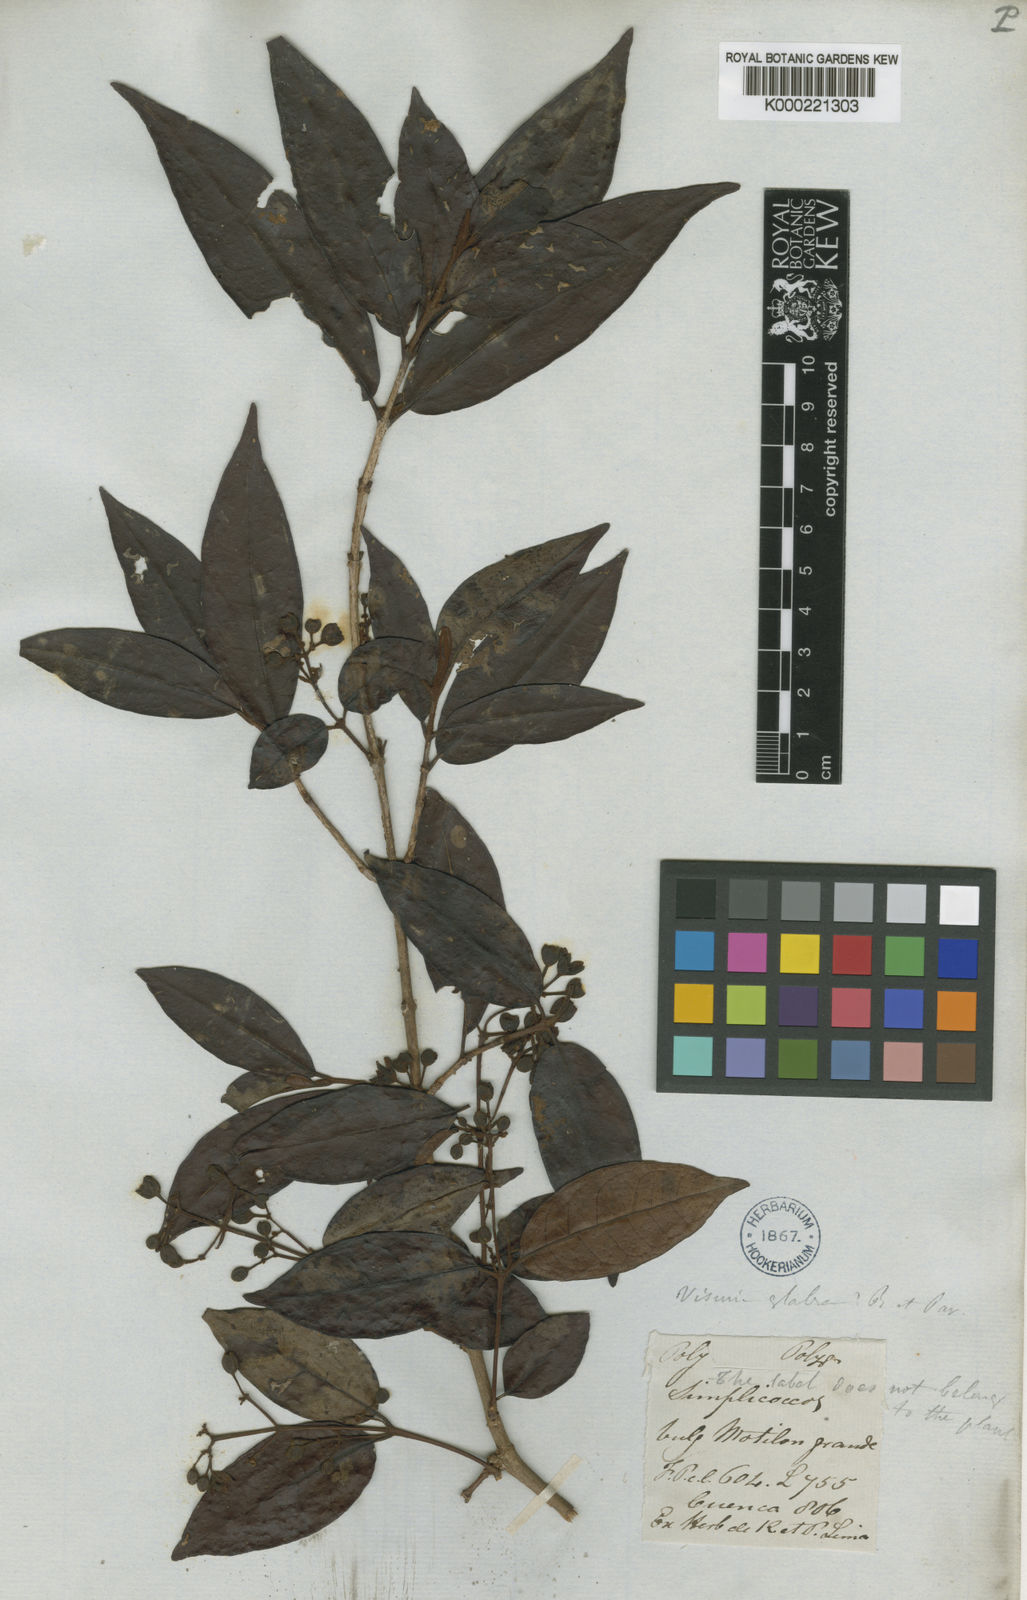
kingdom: Plantae
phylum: Tracheophyta
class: Magnoliopsida
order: Malpighiales
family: Hypericaceae
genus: Vismia
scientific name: Vismia glabra
